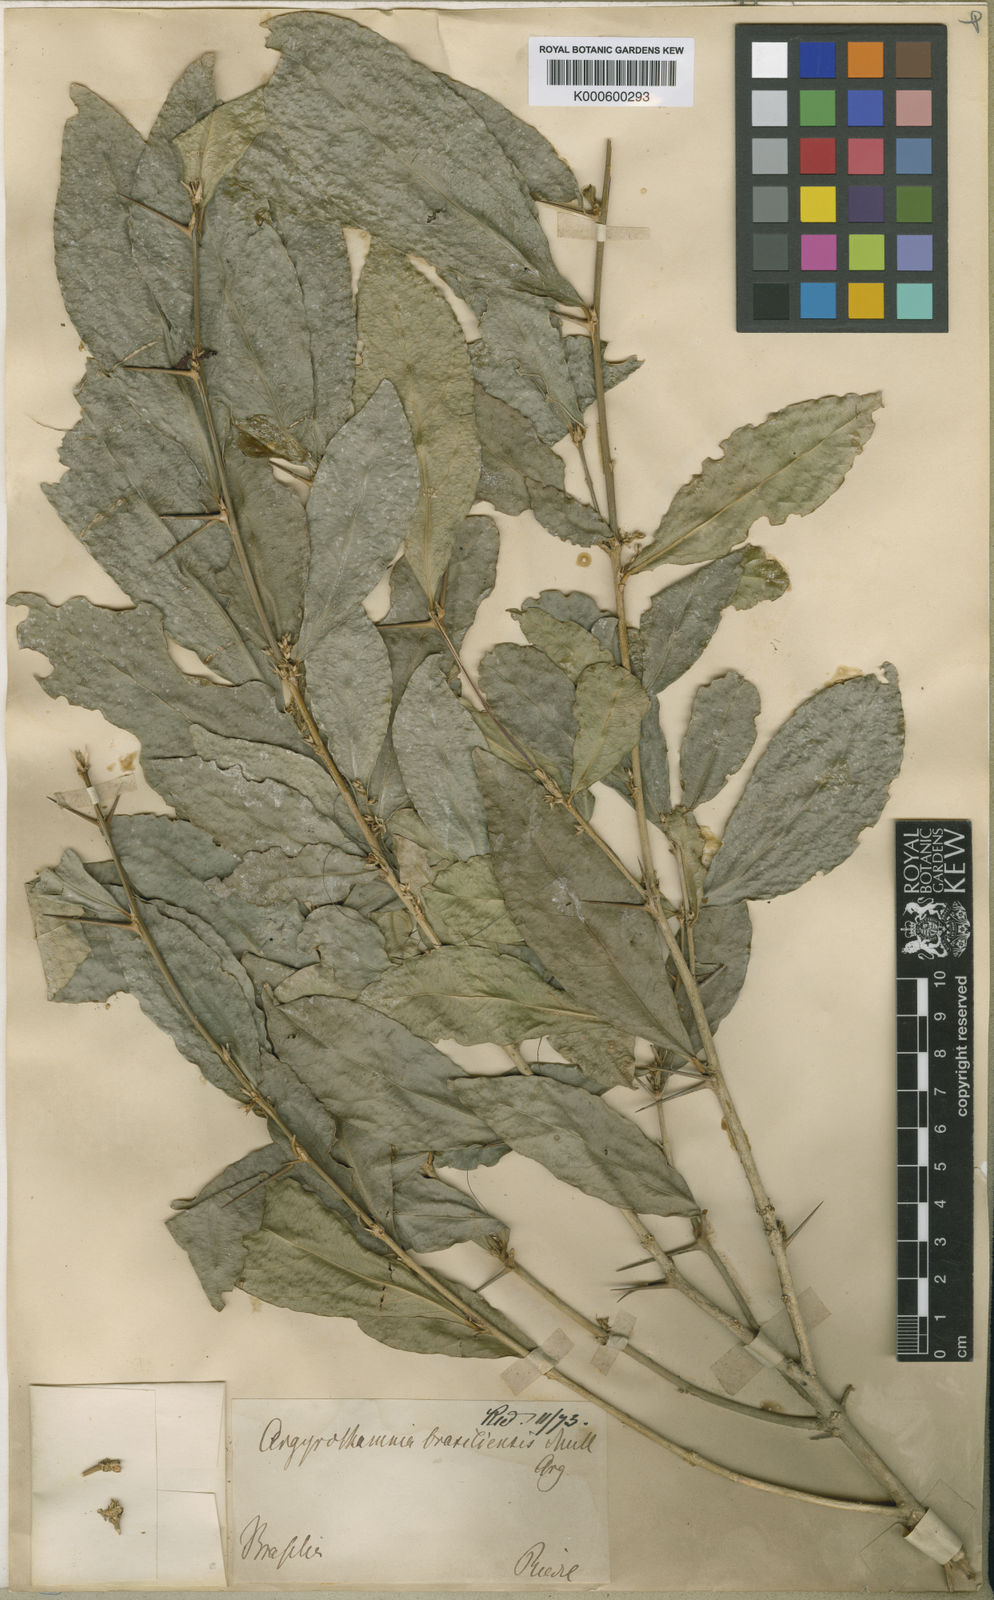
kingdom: Plantae
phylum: Tracheophyta
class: Magnoliopsida
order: Malpighiales
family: Euphorbiaceae
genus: Philyra
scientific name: Philyra brasiliensis
